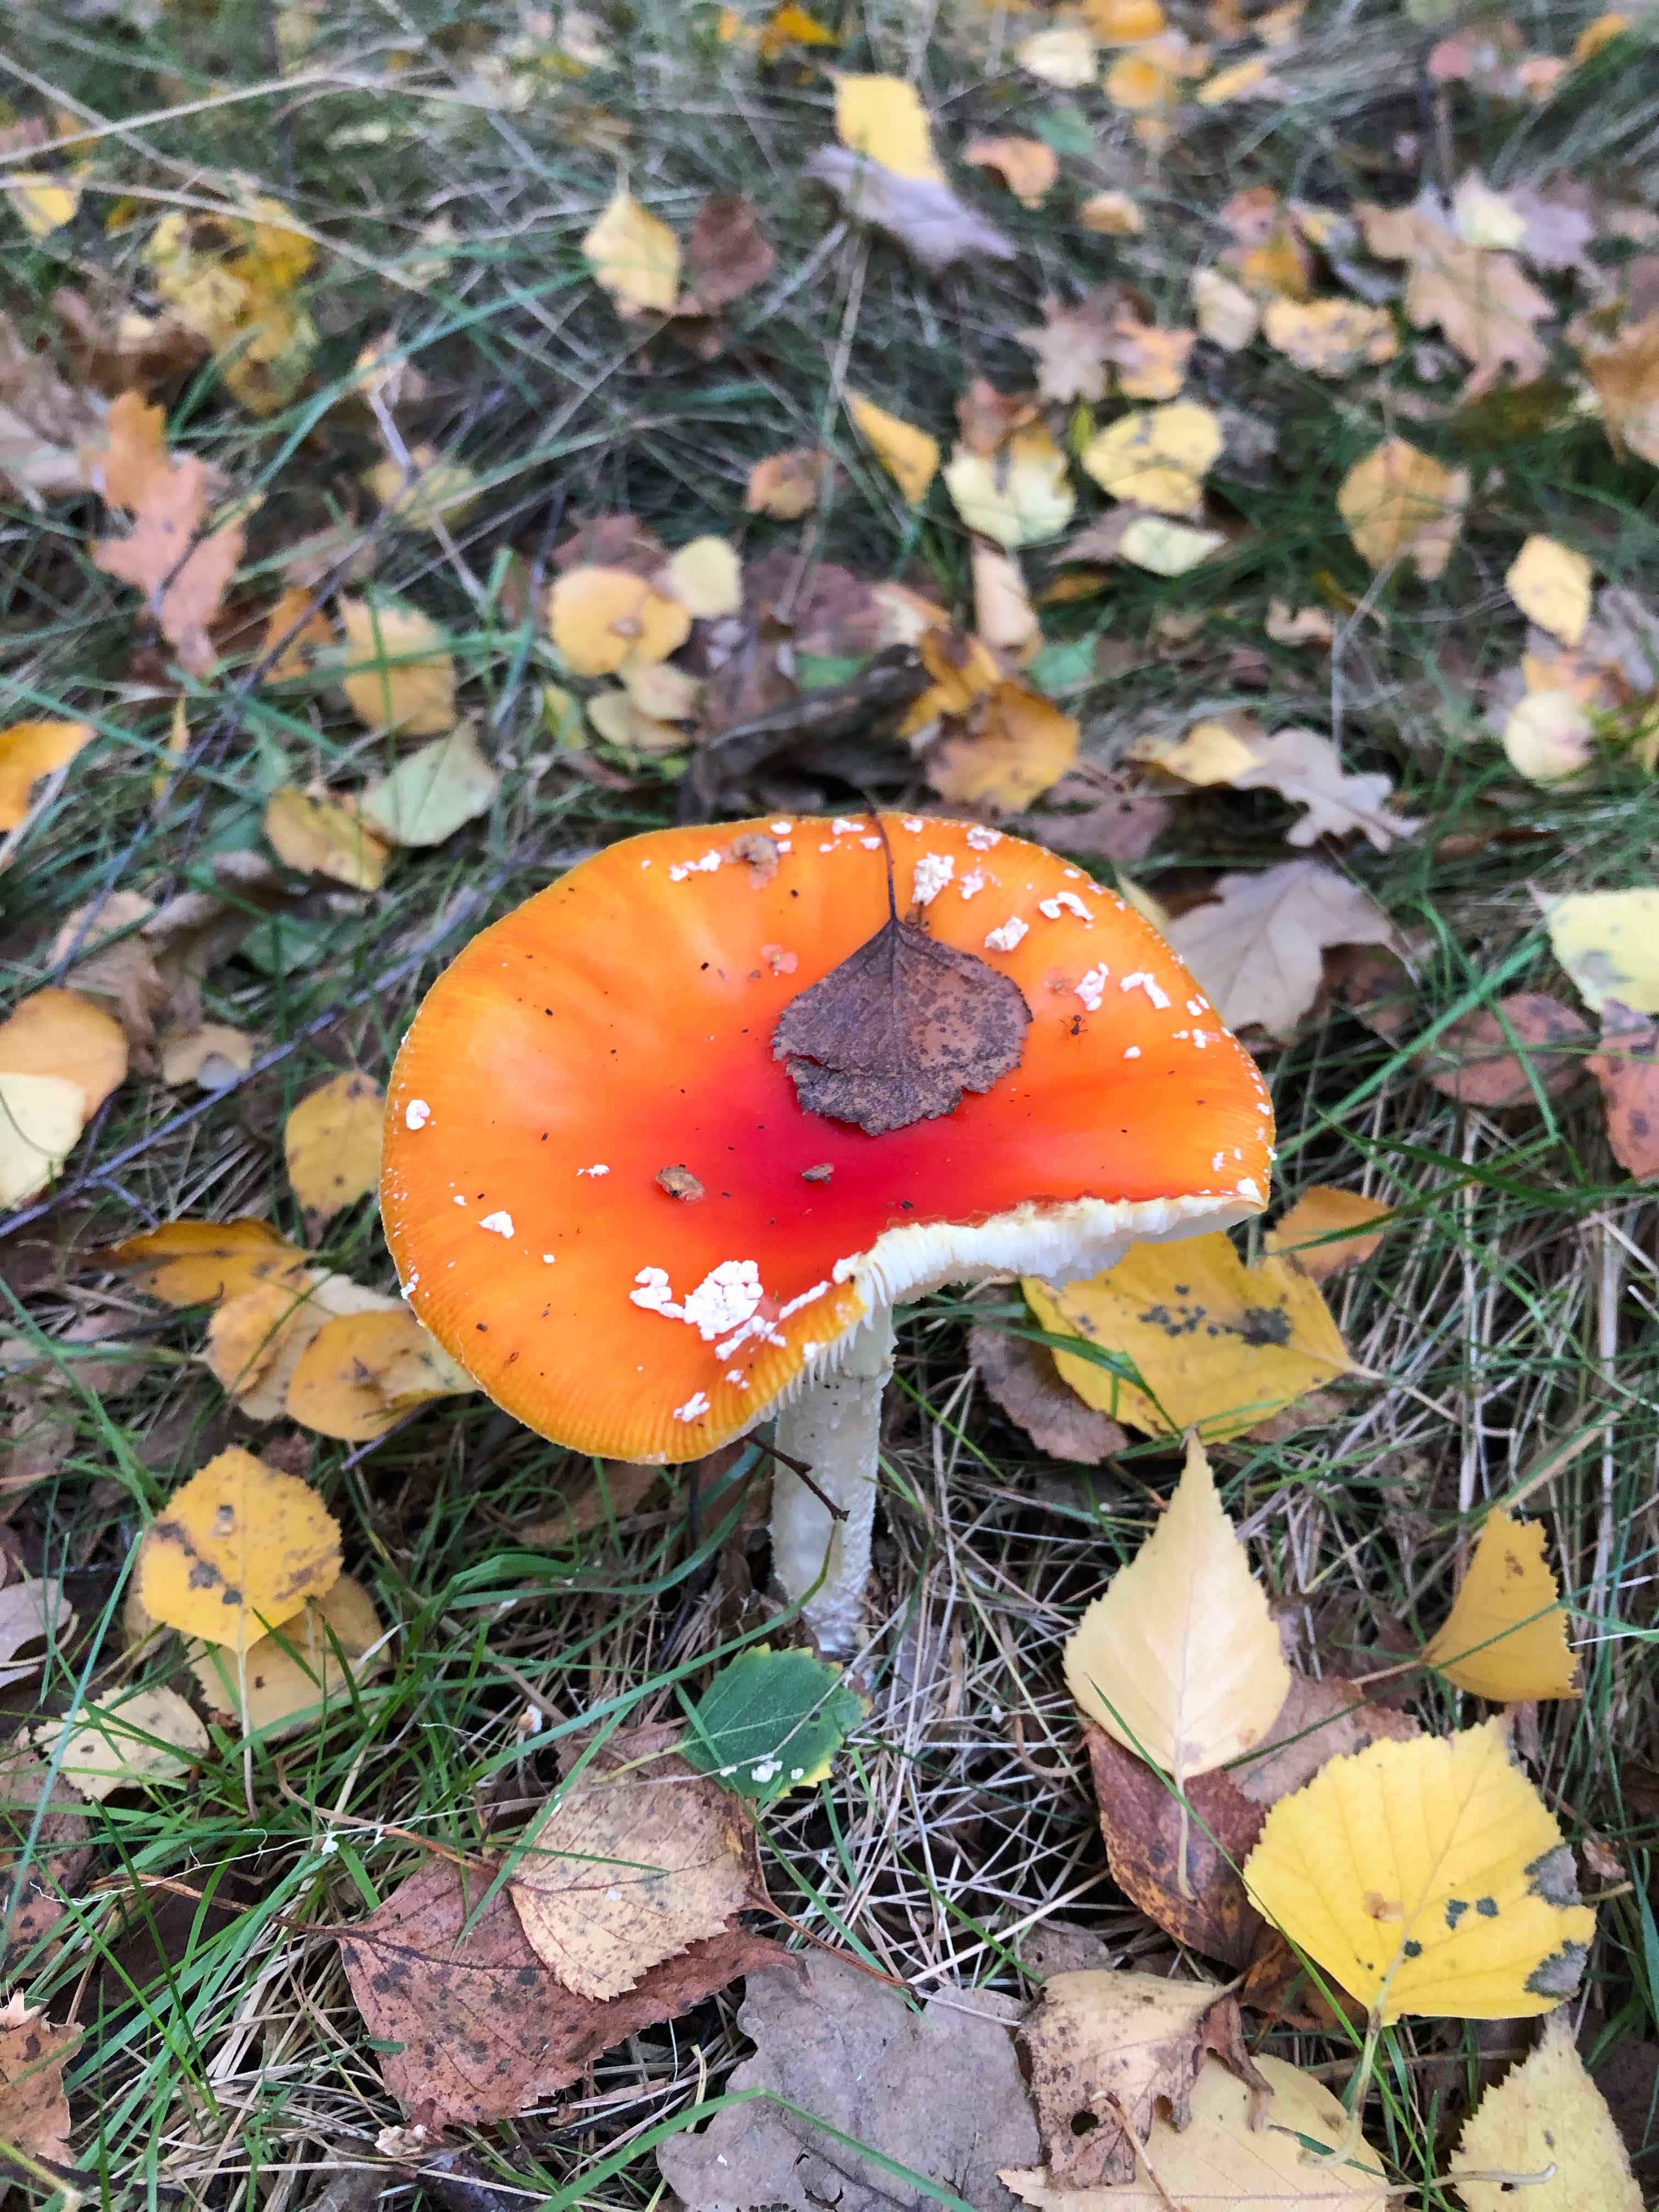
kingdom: Fungi
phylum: Basidiomycota
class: Agaricomycetes
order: Agaricales
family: Amanitaceae
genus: Amanita
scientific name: Amanita muscaria
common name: rød fluesvamp
